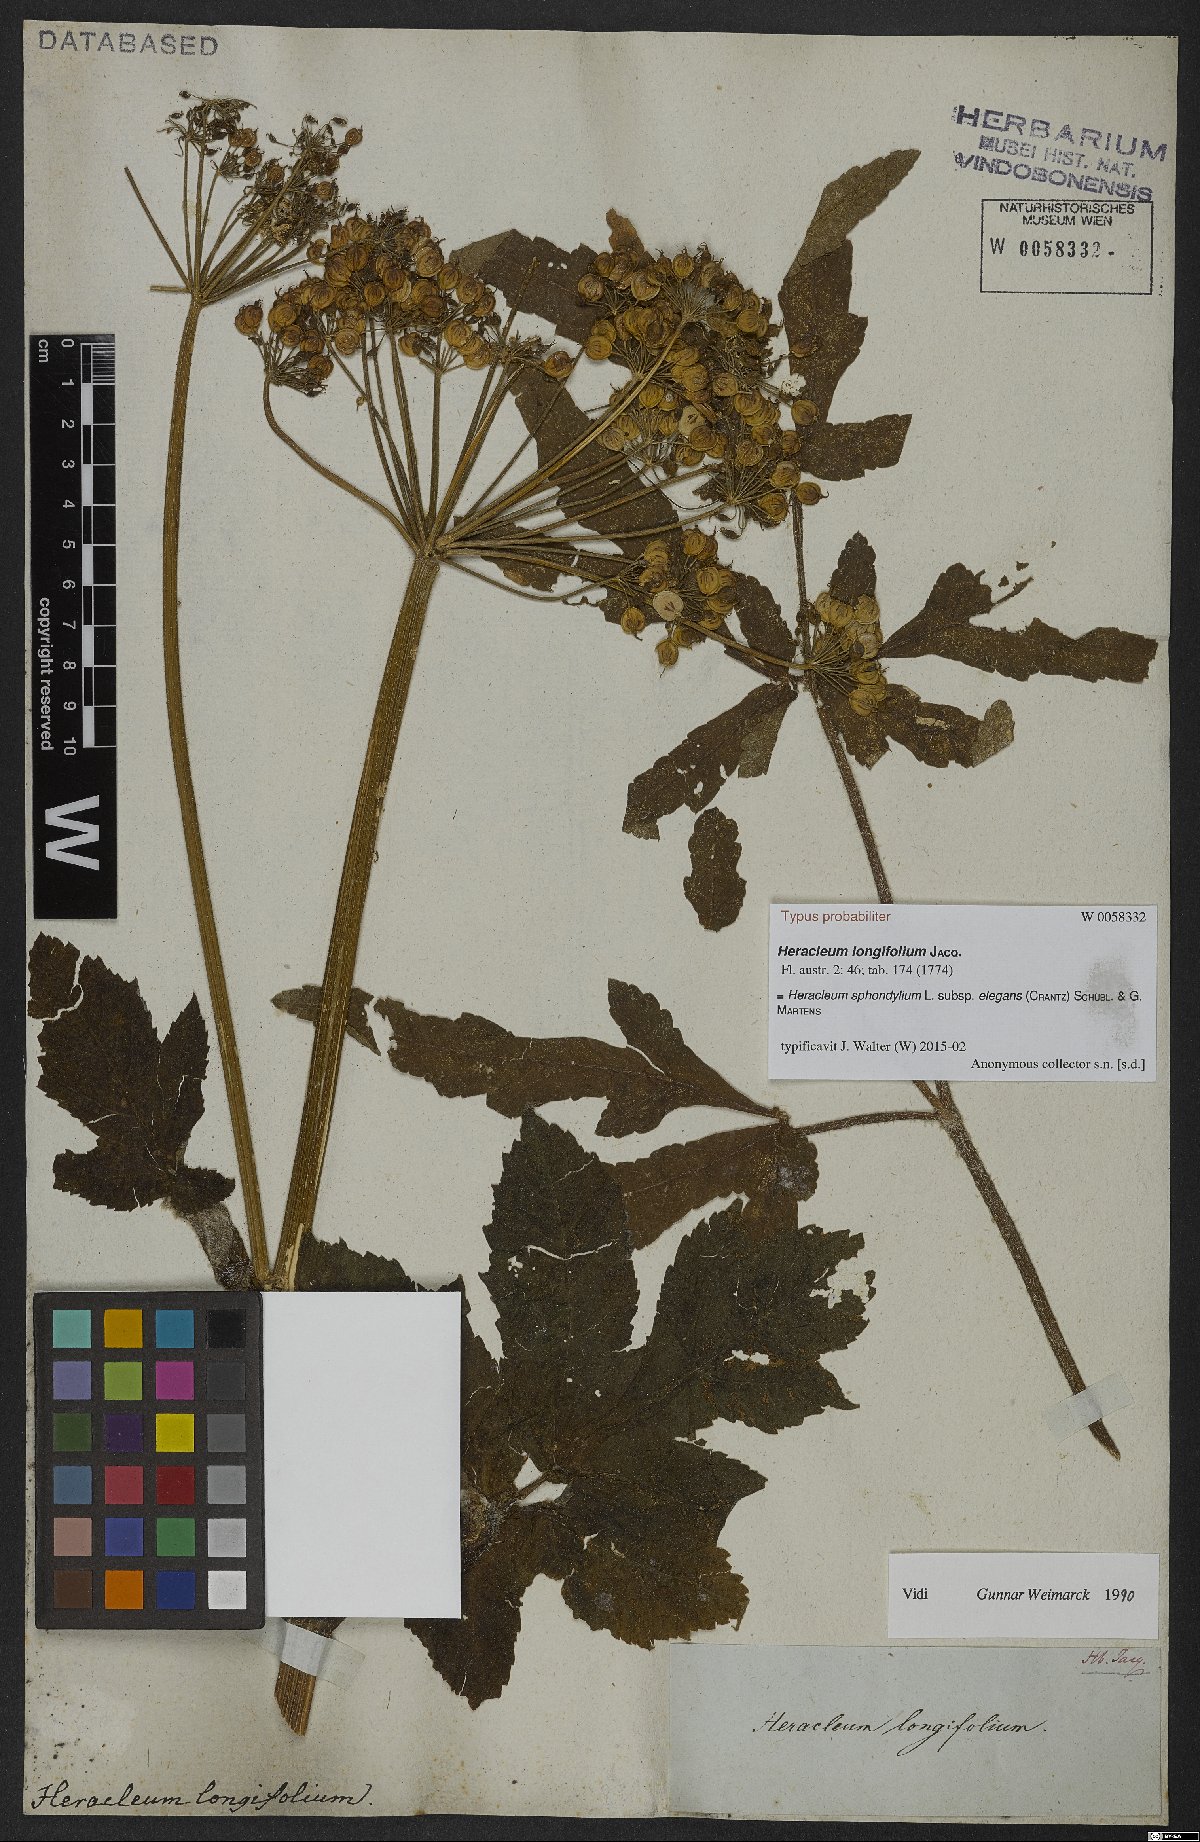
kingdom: Plantae
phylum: Tracheophyta
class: Magnoliopsida
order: Apiales
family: Apiaceae
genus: Heracleum
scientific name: Heracleum sphondylium
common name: Hogweed
